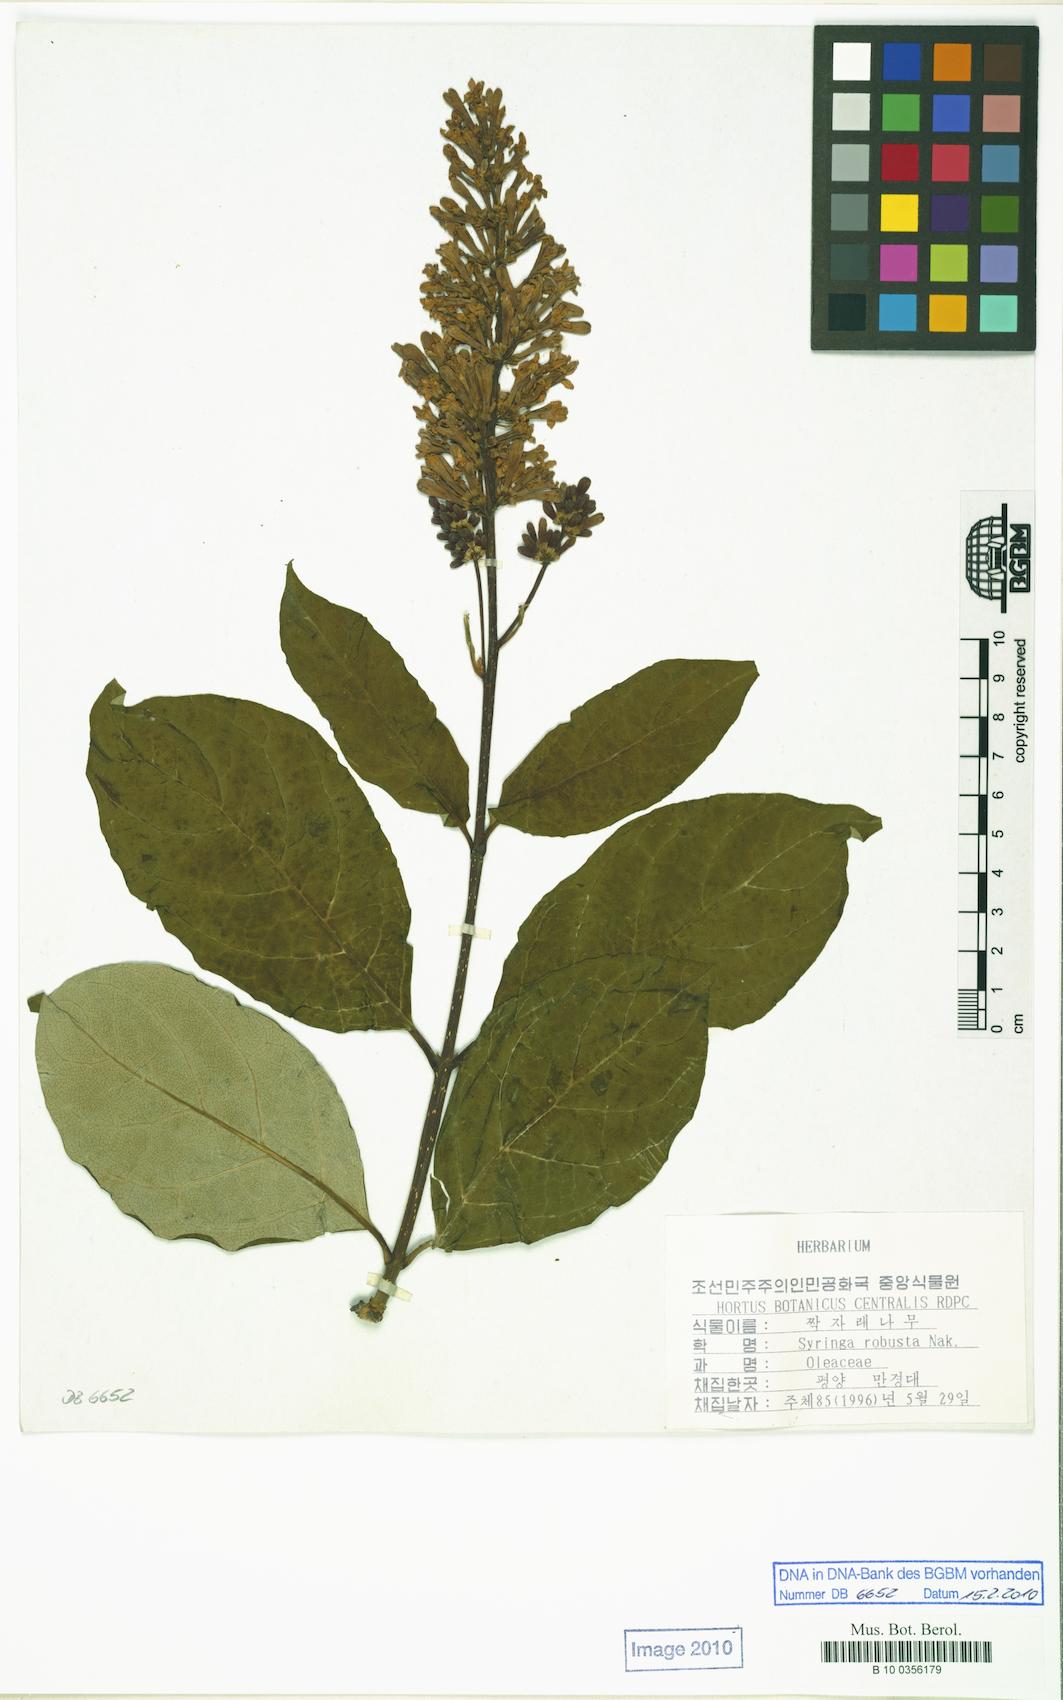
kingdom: Plantae
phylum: Tracheophyta
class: Magnoliopsida
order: Lamiales
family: Oleaceae
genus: Syringa
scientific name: Syringa villosa
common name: Villous lilac
